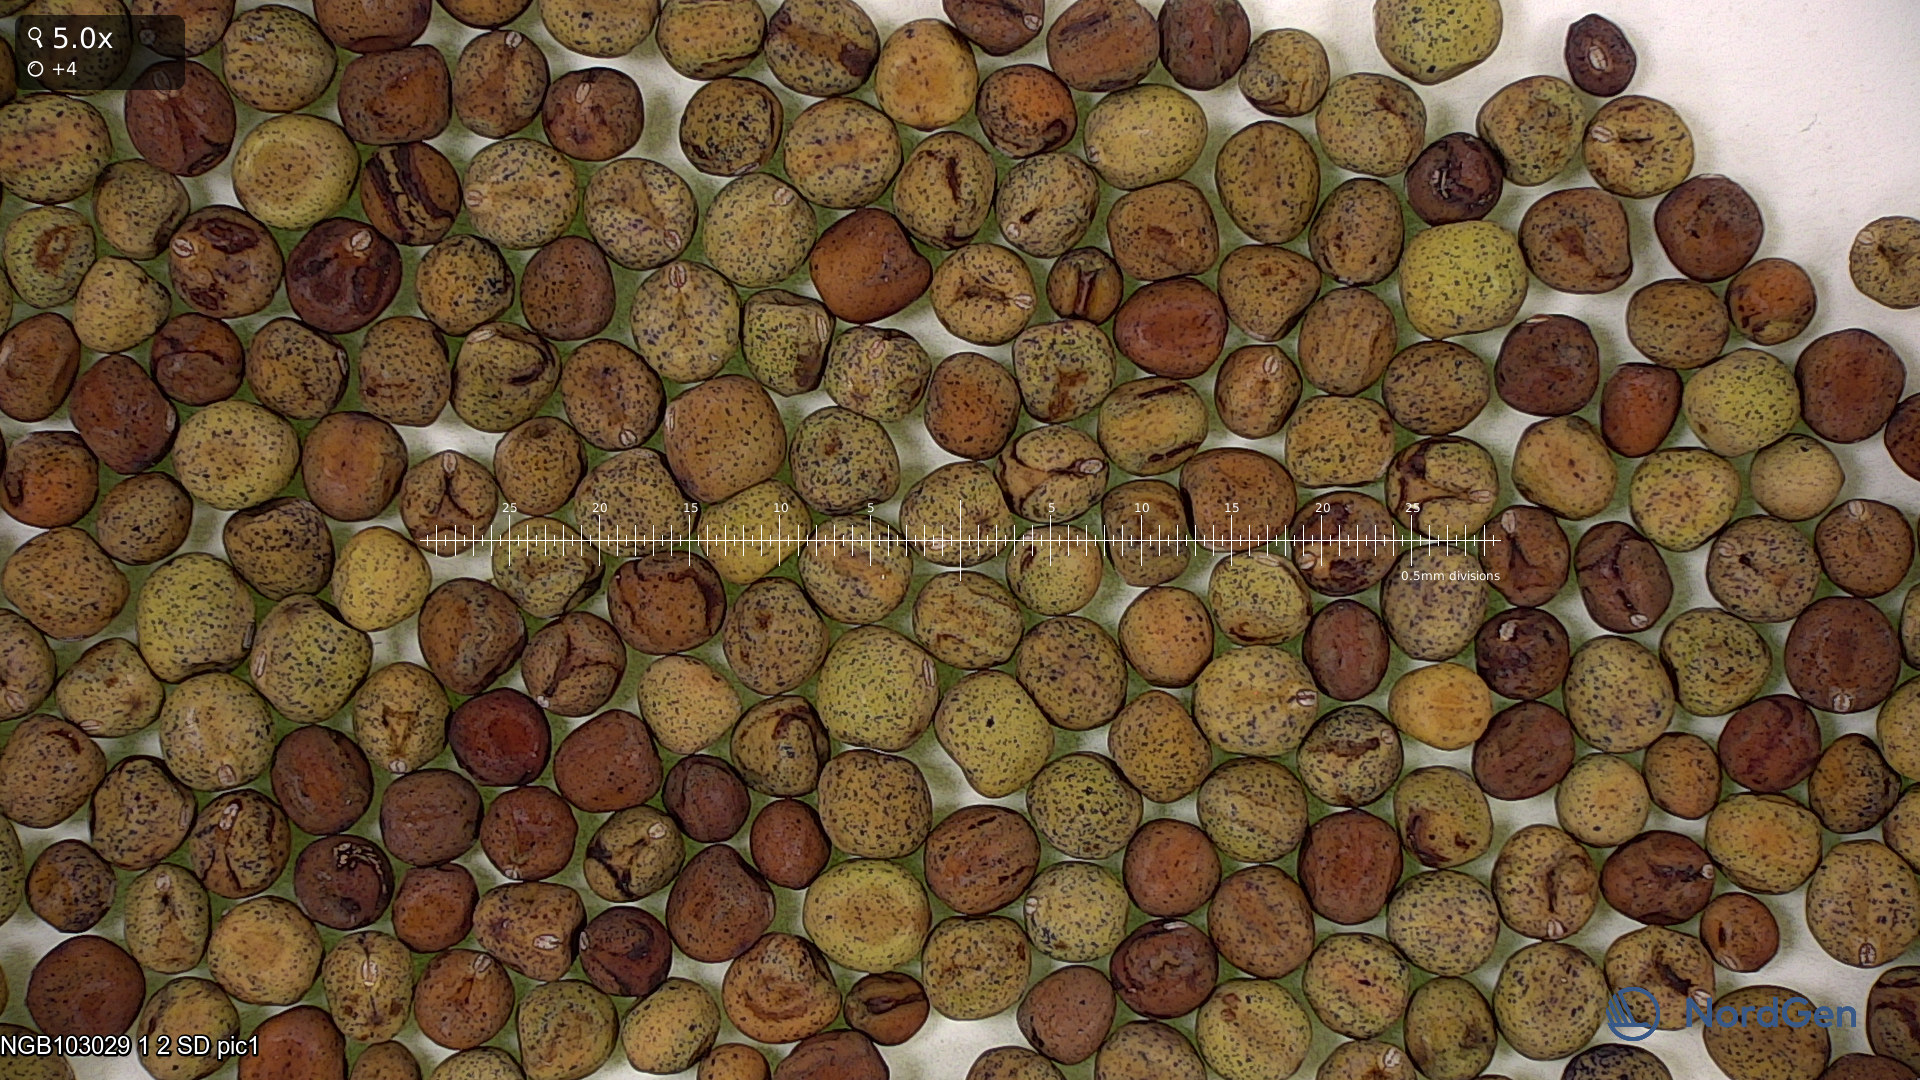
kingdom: Plantae
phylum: Tracheophyta
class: Magnoliopsida
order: Fabales
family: Fabaceae
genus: Lathyrus
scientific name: Lathyrus oleraceus
